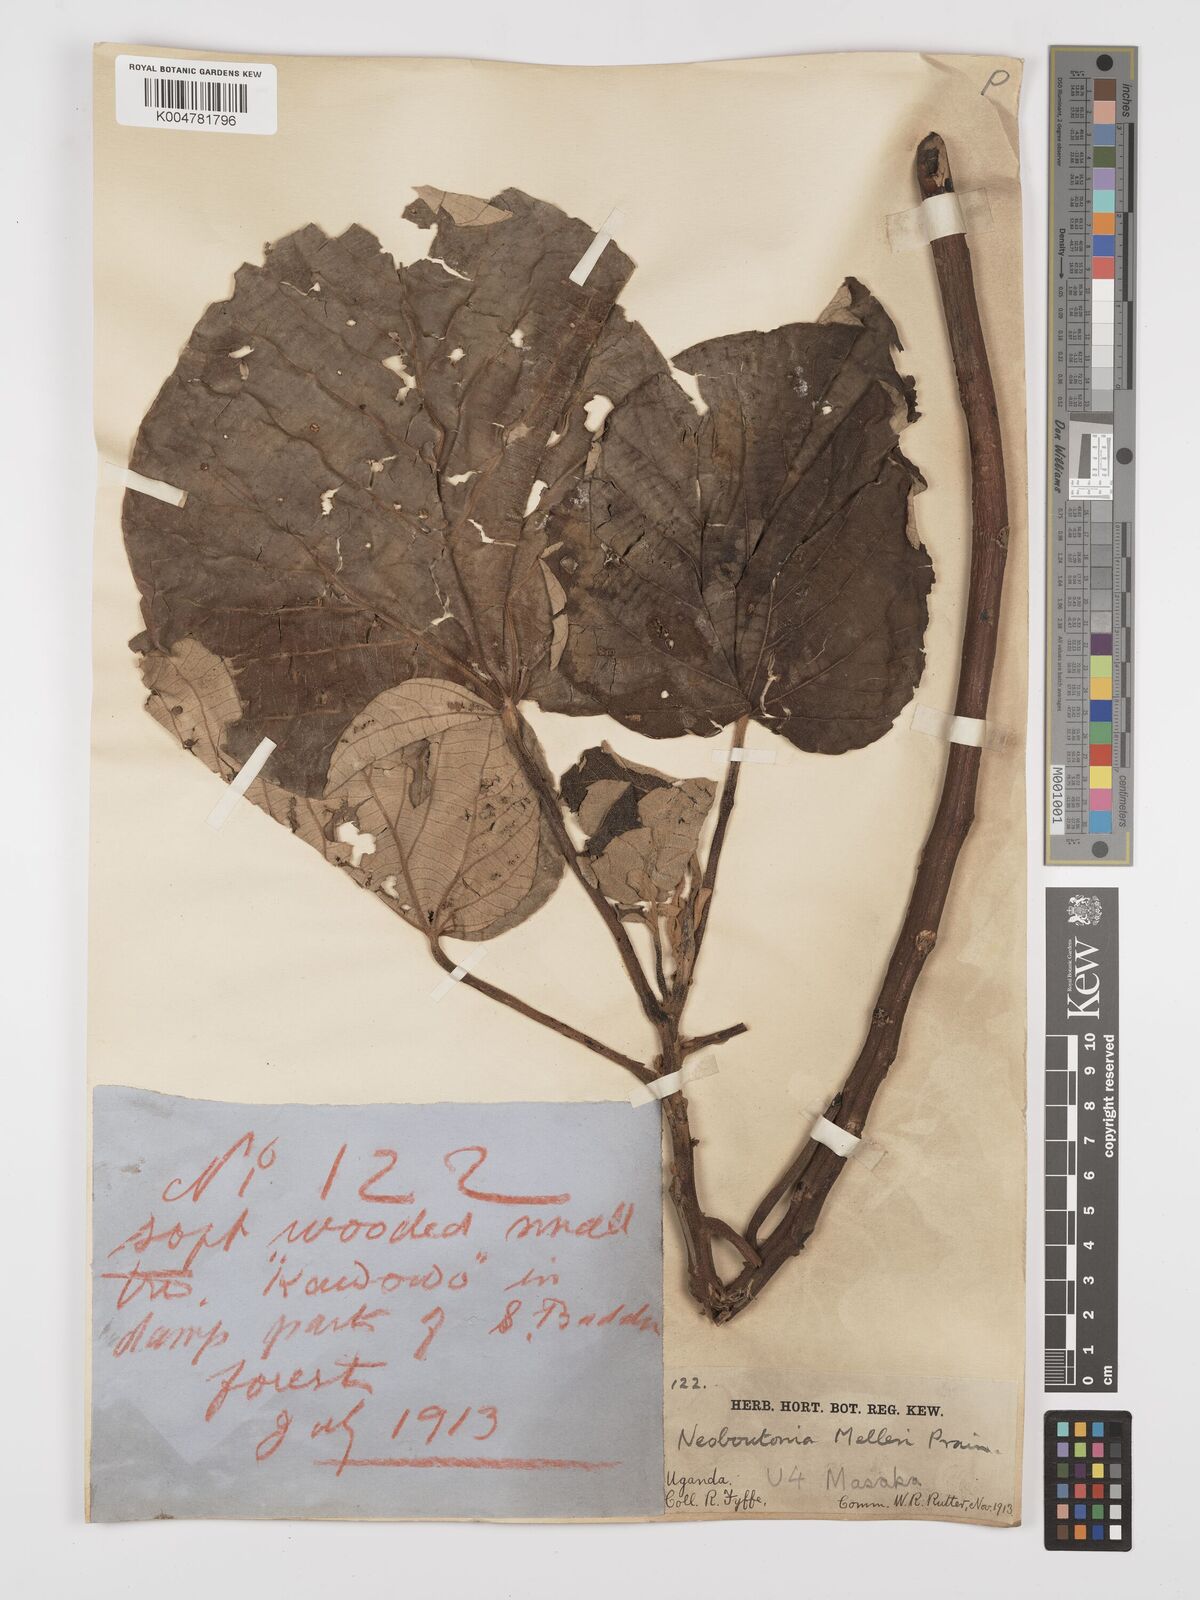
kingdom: Plantae
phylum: Tracheophyta
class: Magnoliopsida
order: Malpighiales
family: Euphorbiaceae
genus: Neoboutonia
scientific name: Neoboutonia melleri
